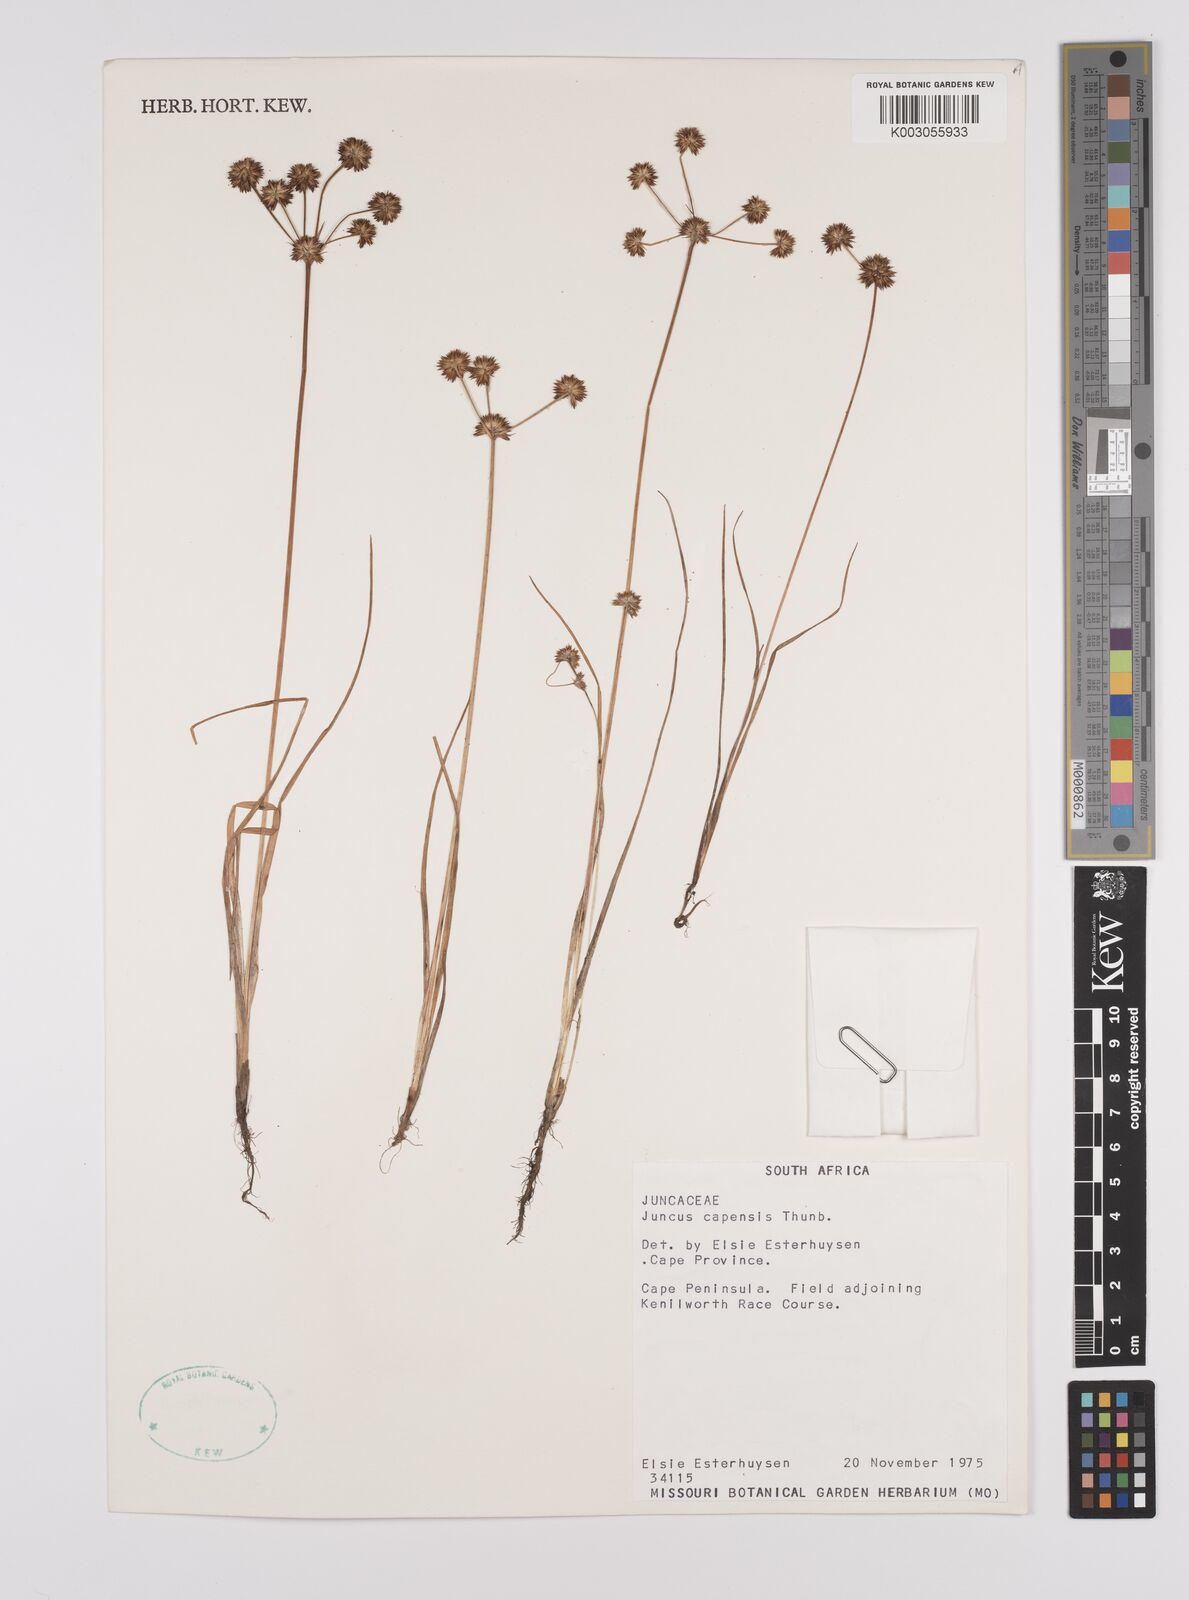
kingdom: Plantae
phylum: Tracheophyta
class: Liliopsida
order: Poales
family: Juncaceae
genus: Juncus
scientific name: Juncus capensis
